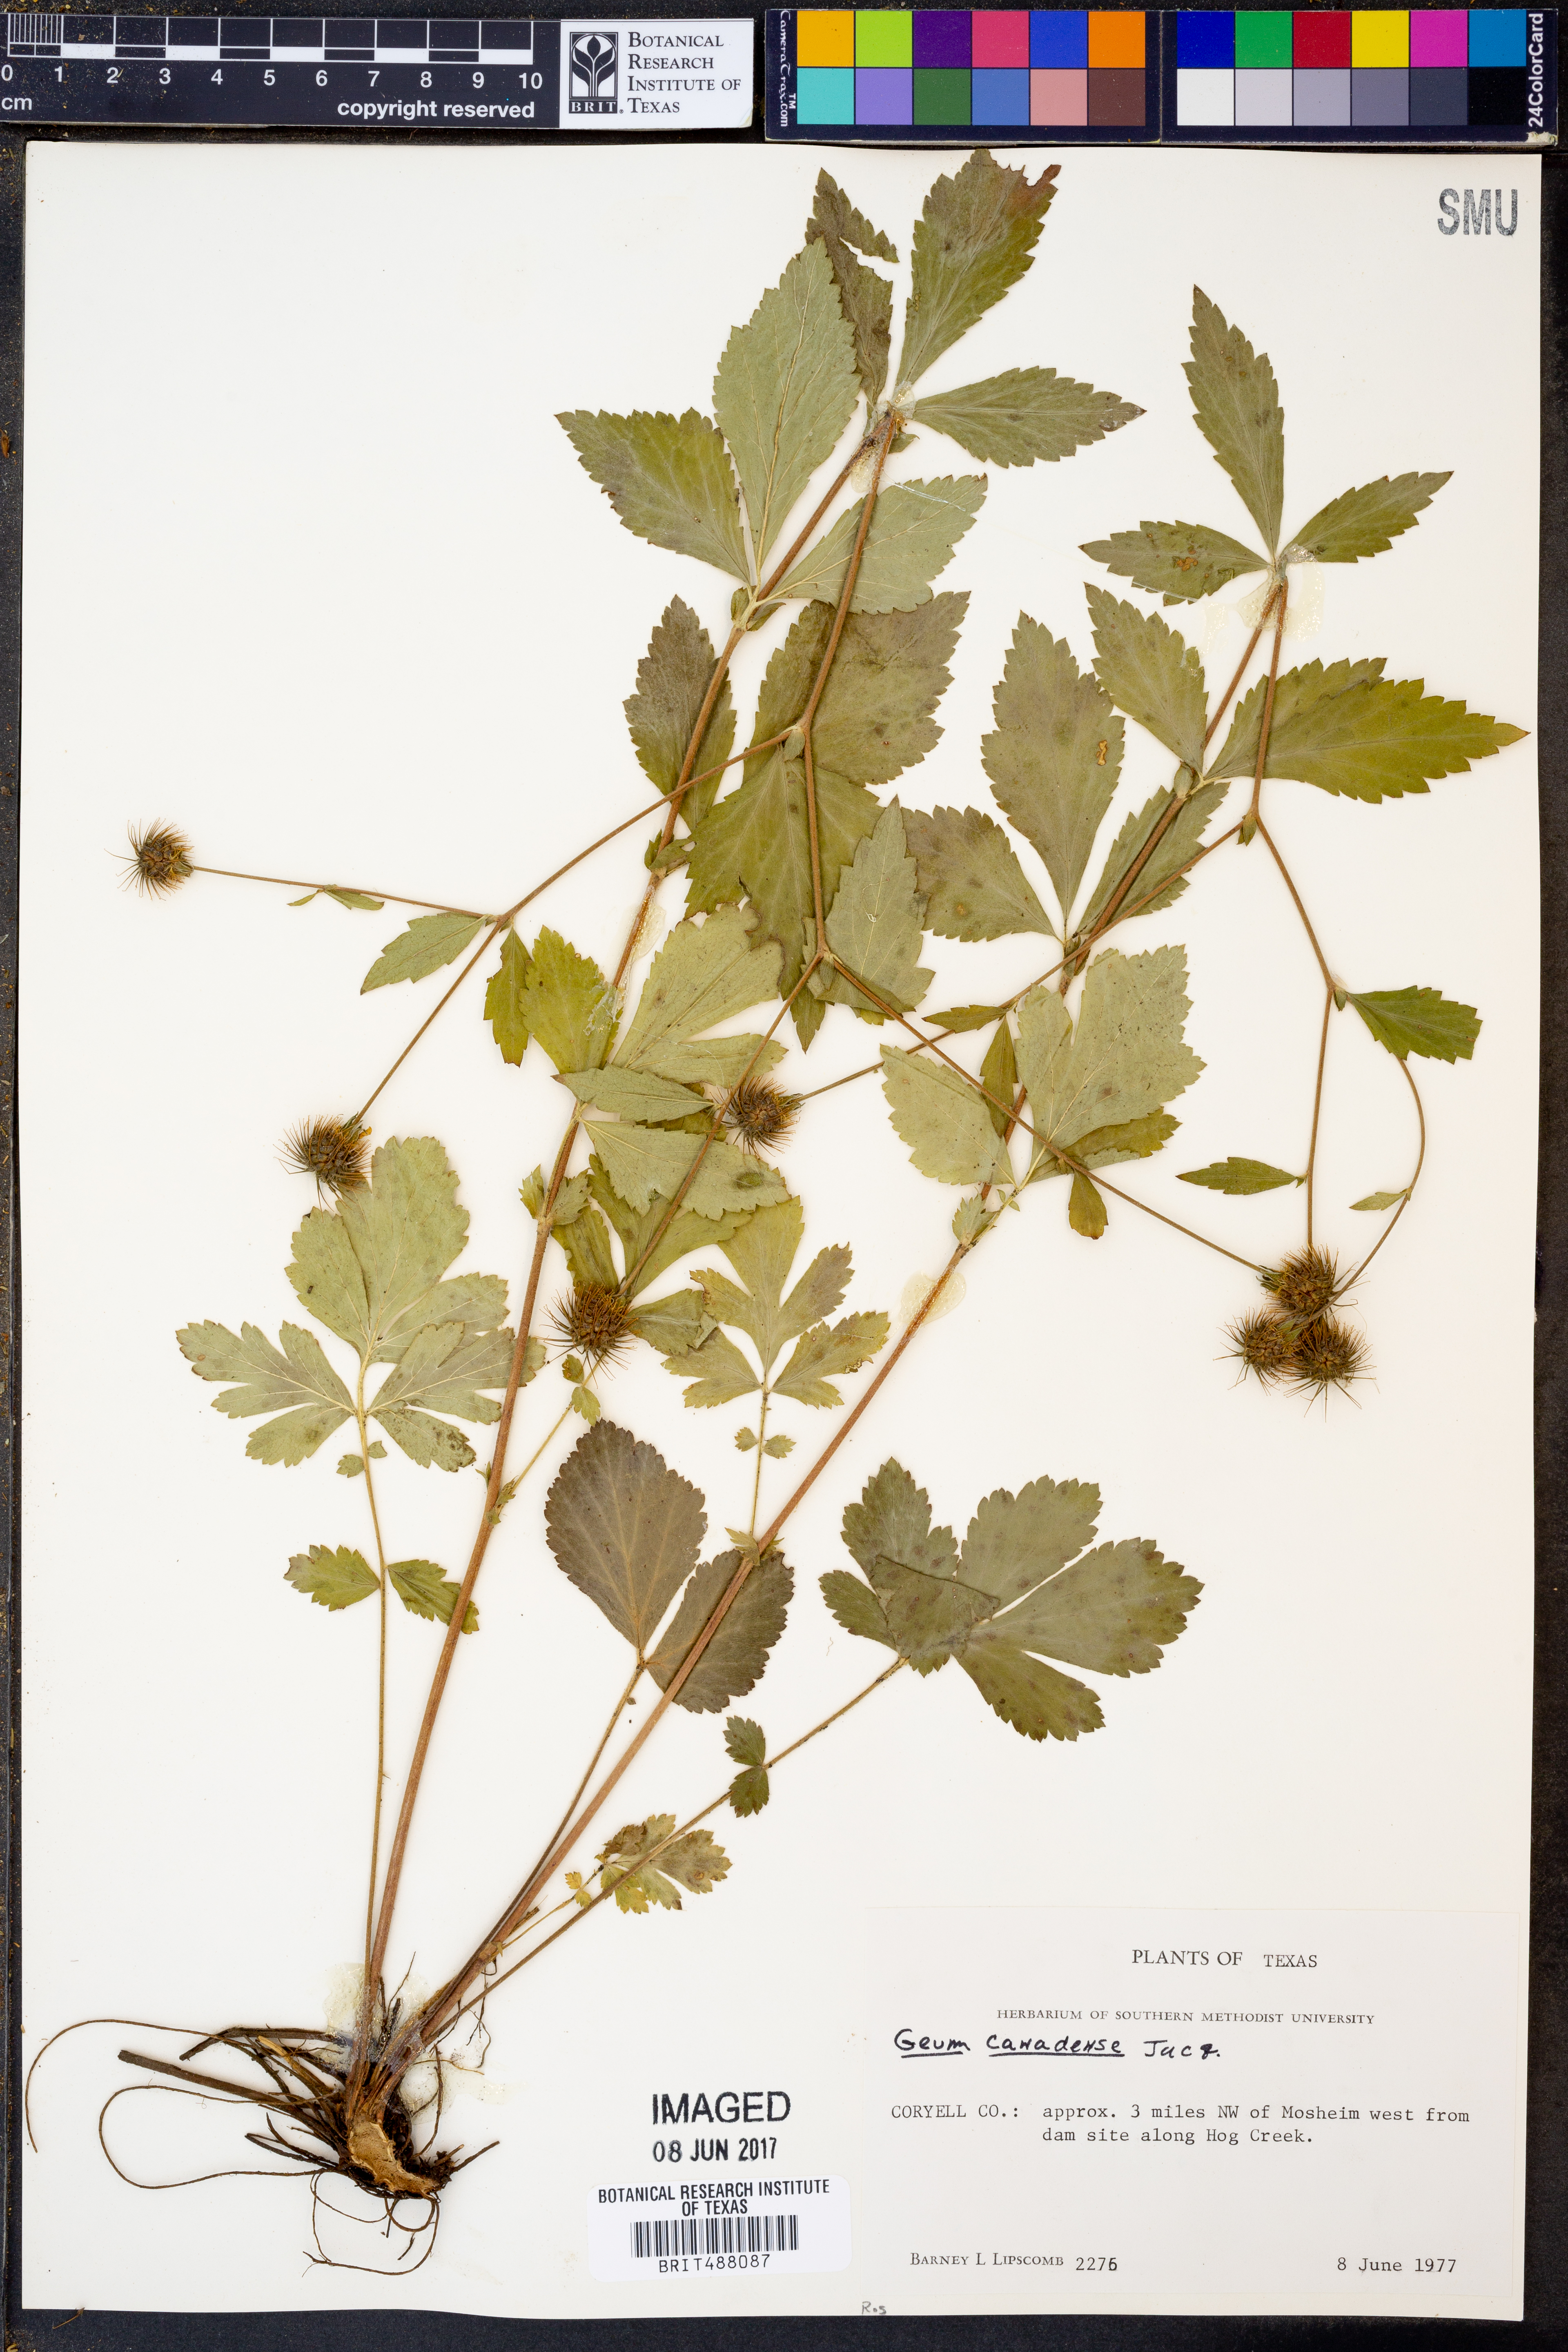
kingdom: Plantae
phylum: Tracheophyta
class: Magnoliopsida
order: Rosales
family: Rosaceae
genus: Geum
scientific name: Geum canadense
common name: White avens
